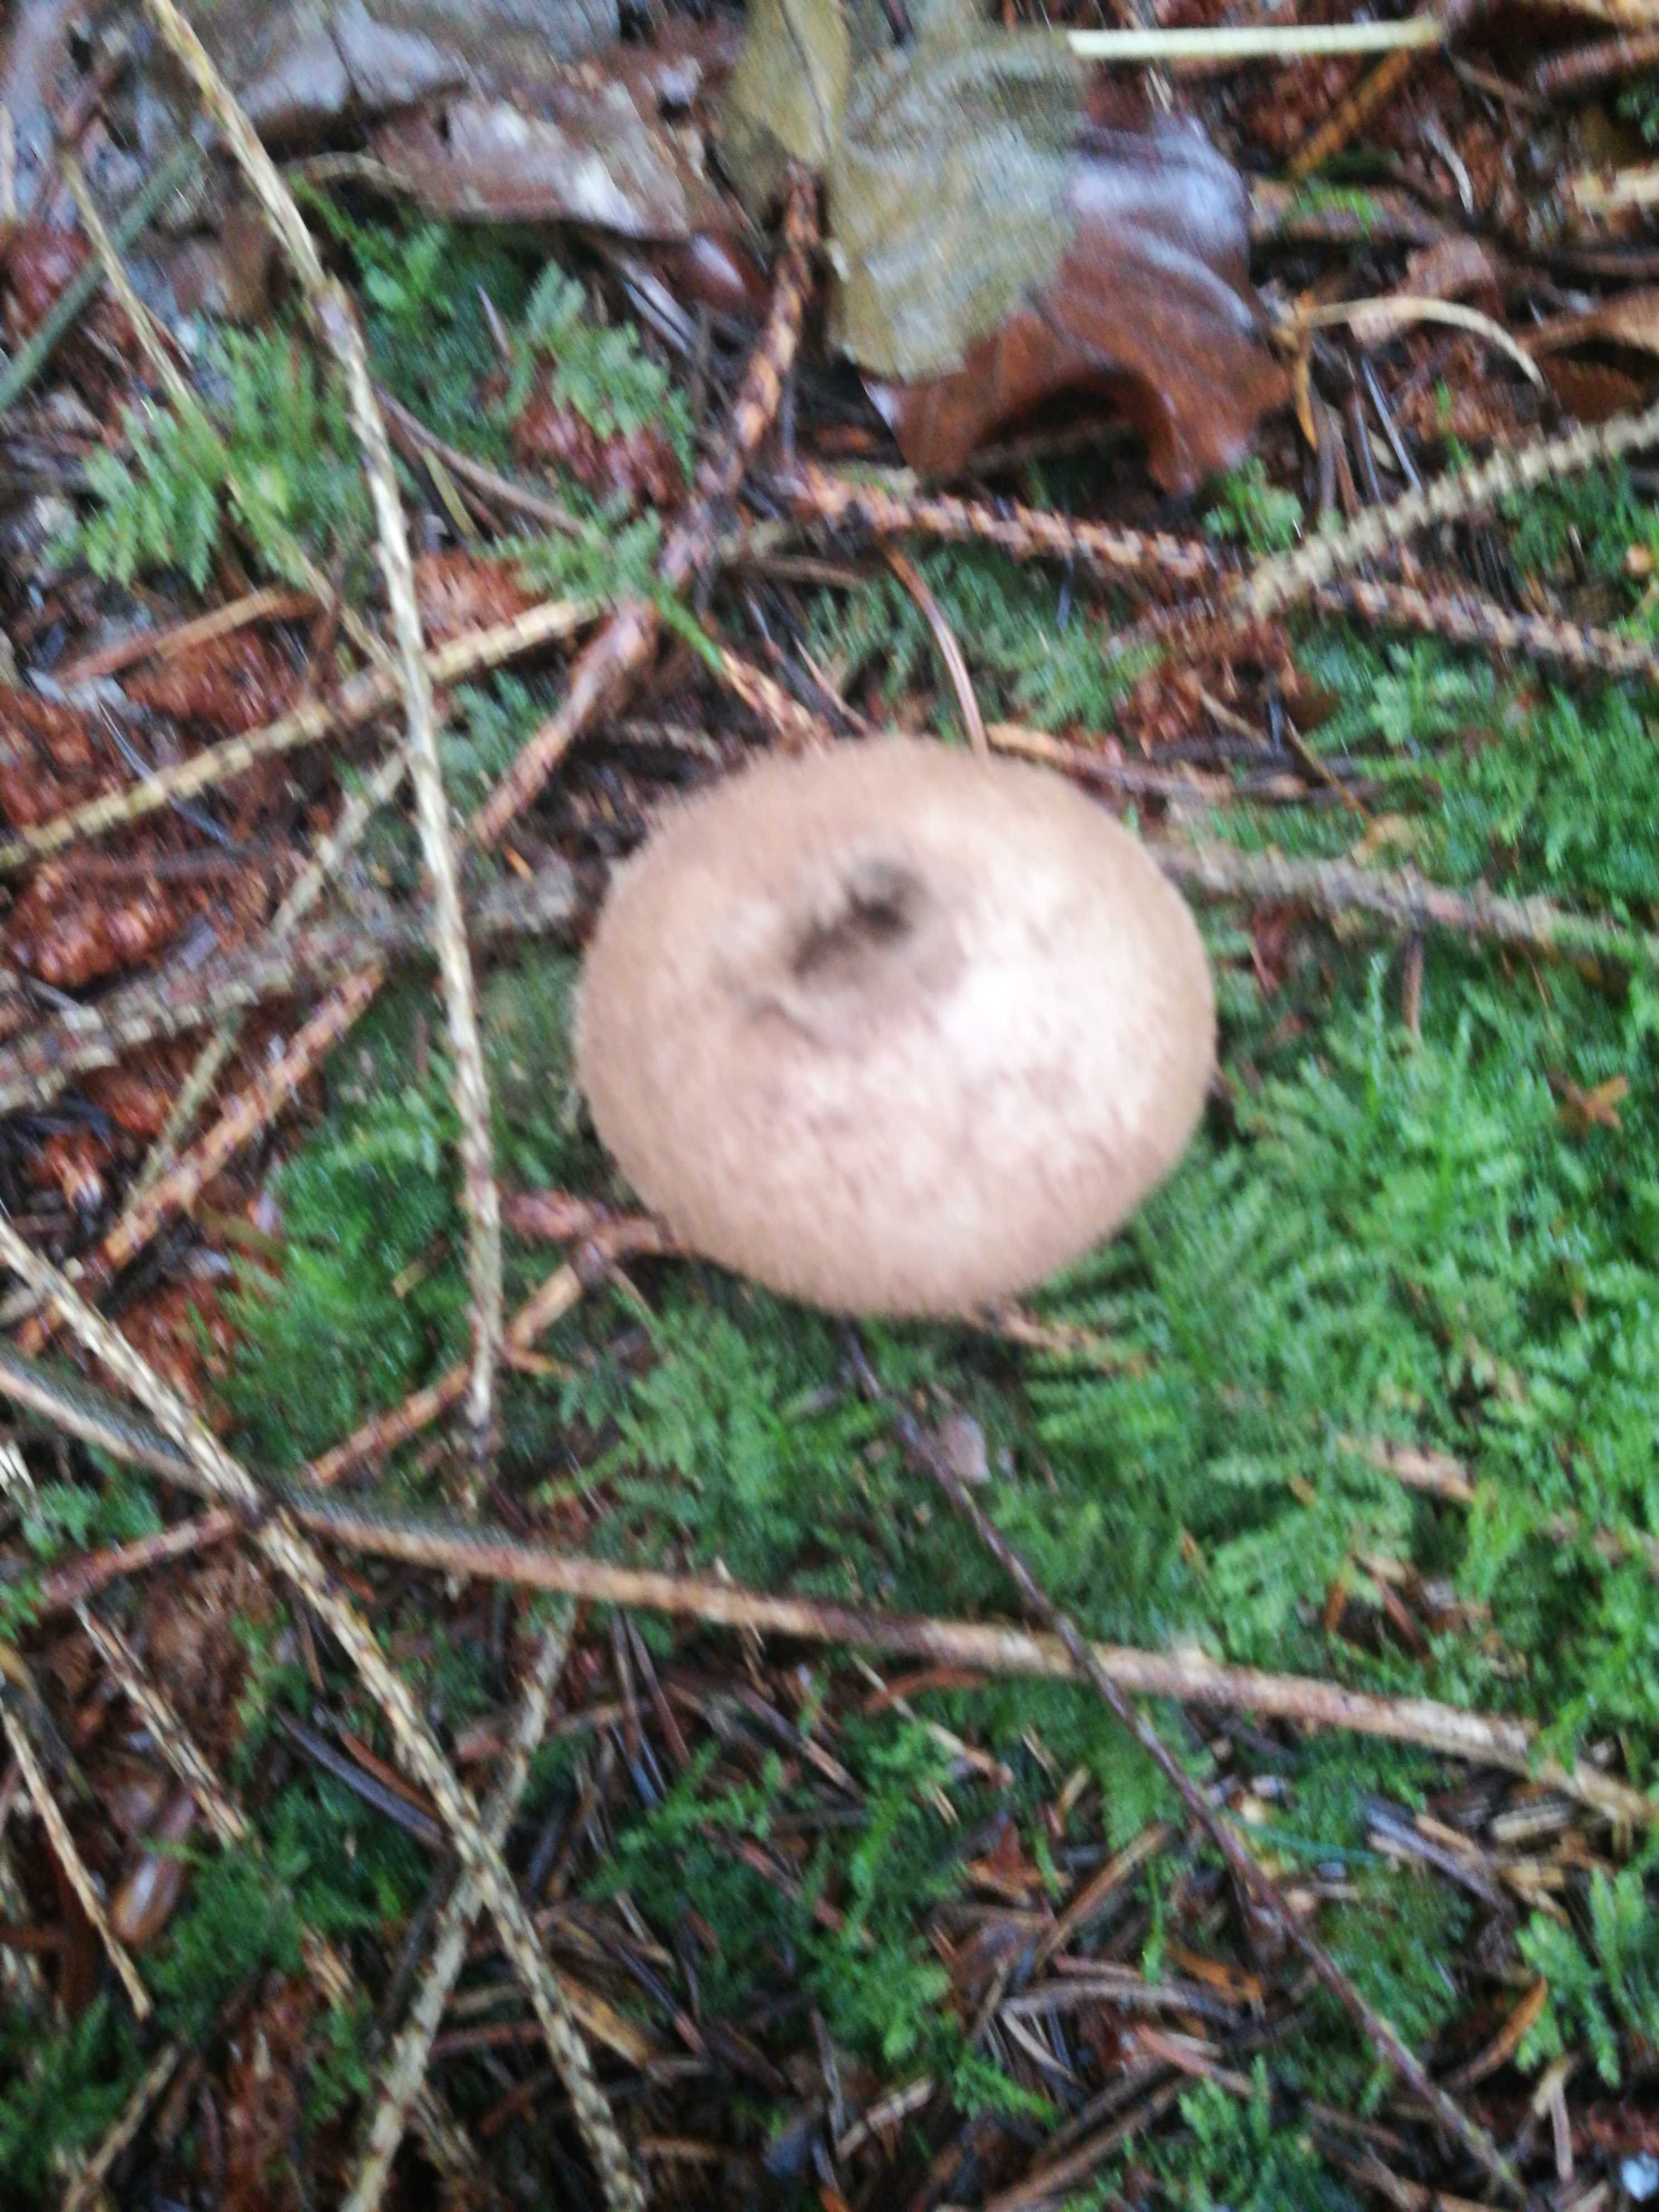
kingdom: Fungi
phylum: Basidiomycota
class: Agaricomycetes
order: Agaricales
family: Agaricaceae
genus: Lycoperdon
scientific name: Lycoperdon
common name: støvbold
